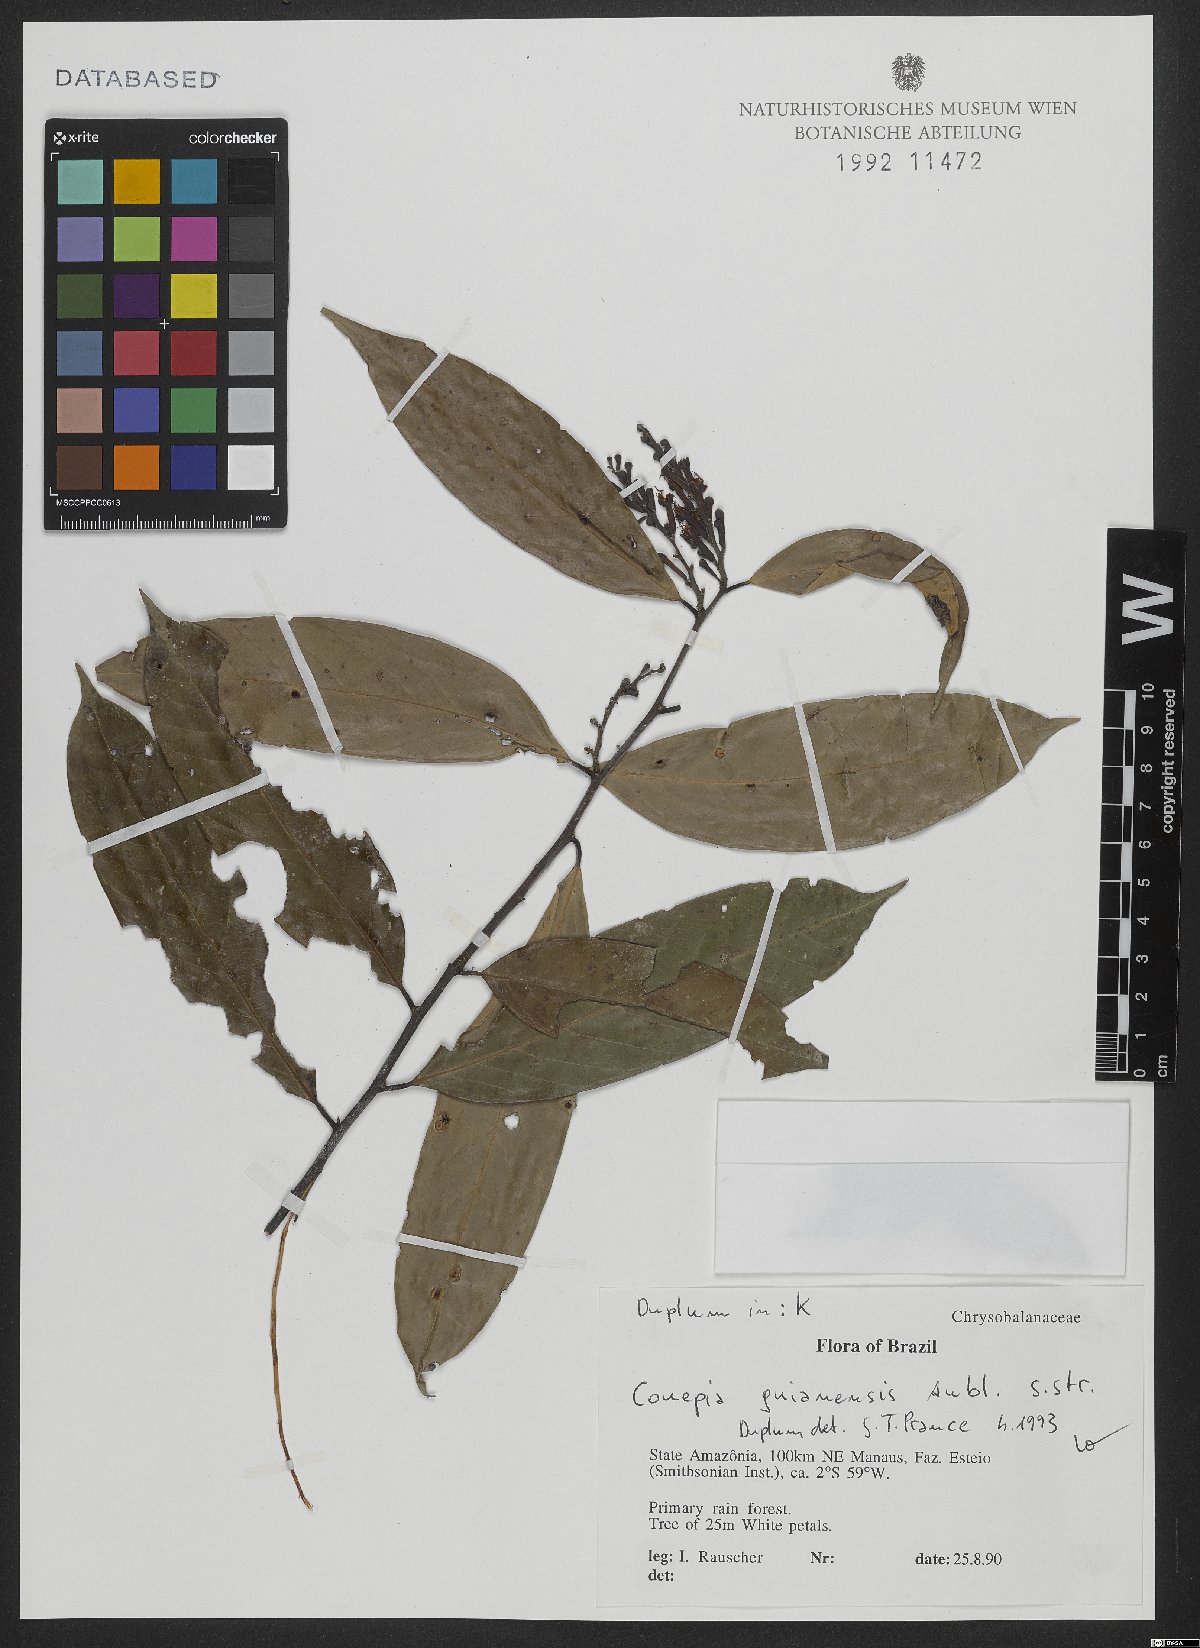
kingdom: Plantae
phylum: Tracheophyta
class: Magnoliopsida
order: Malpighiales
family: Chrysobalanaceae
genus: Couepia
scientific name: Couepia guianensis
